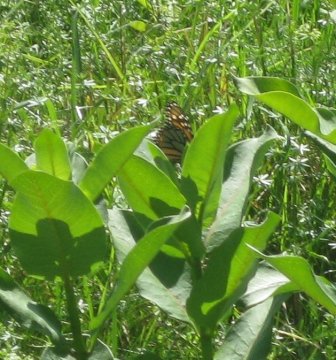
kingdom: Animalia
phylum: Arthropoda
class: Insecta
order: Lepidoptera
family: Nymphalidae
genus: Danaus
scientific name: Danaus plexippus
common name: Monarch
